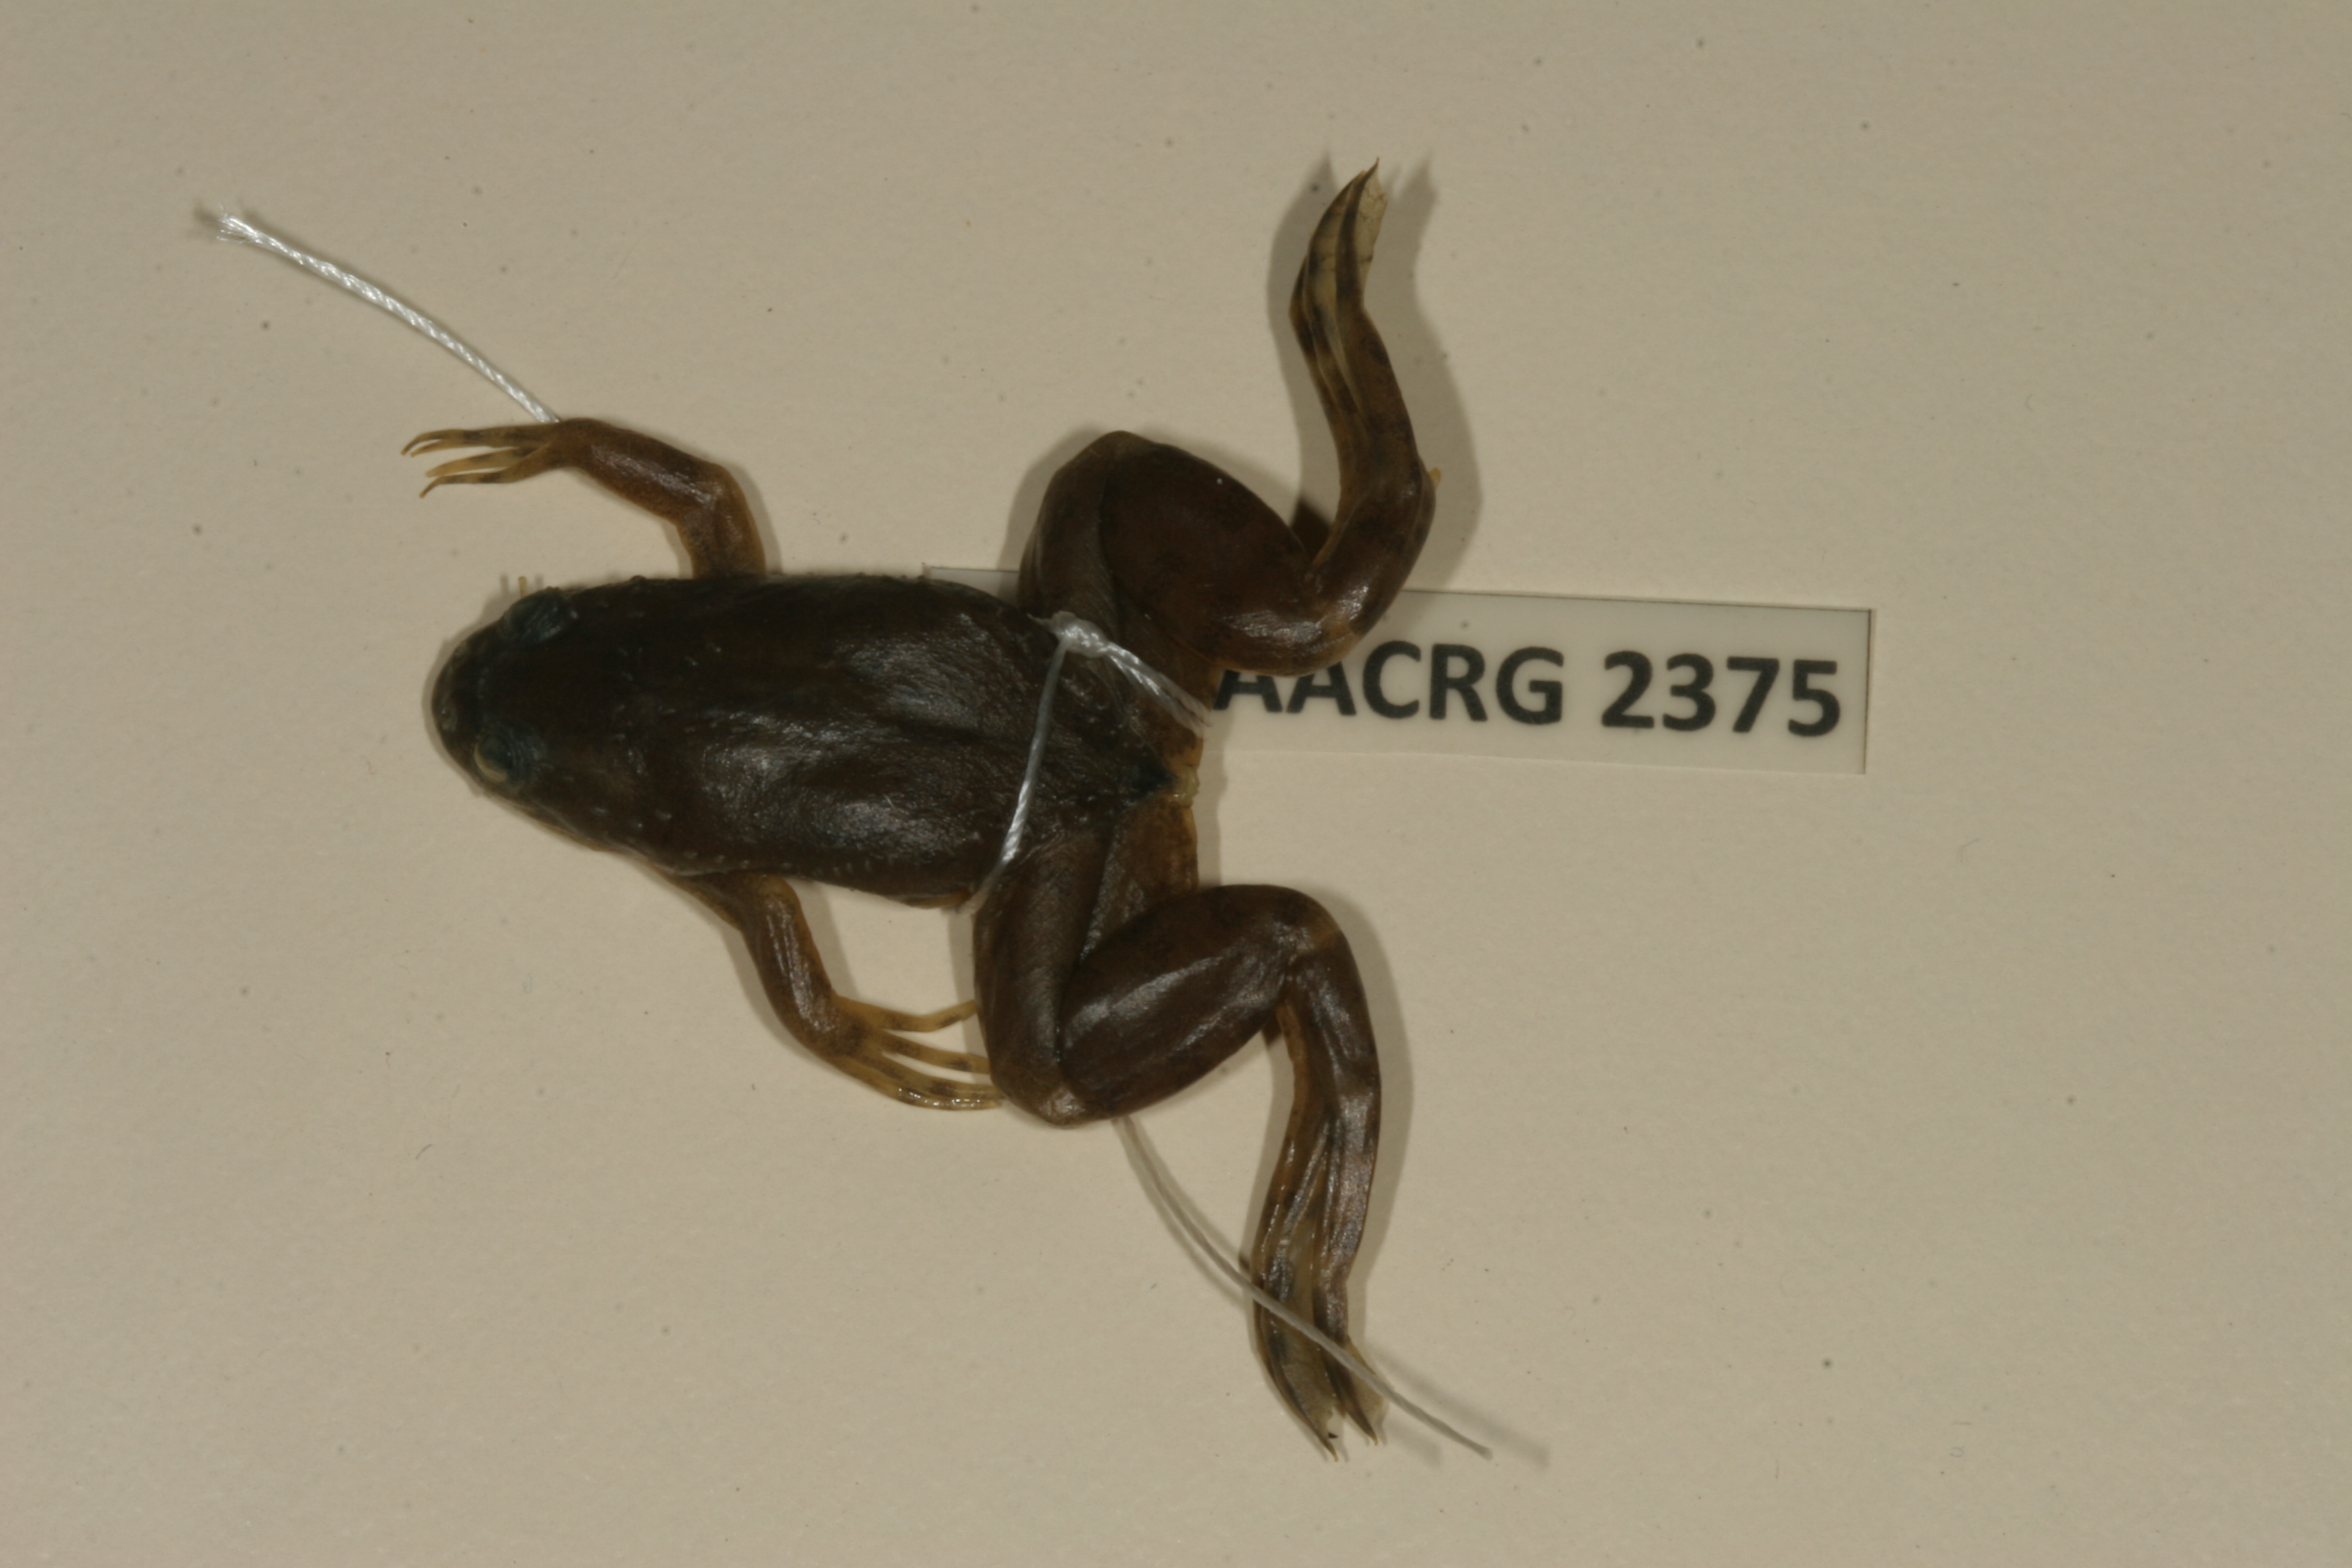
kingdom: Animalia
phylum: Chordata
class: Amphibia
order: Anura
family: Pipidae
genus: Xenopus
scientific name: Xenopus muelleri
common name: Muller's clawed frog
